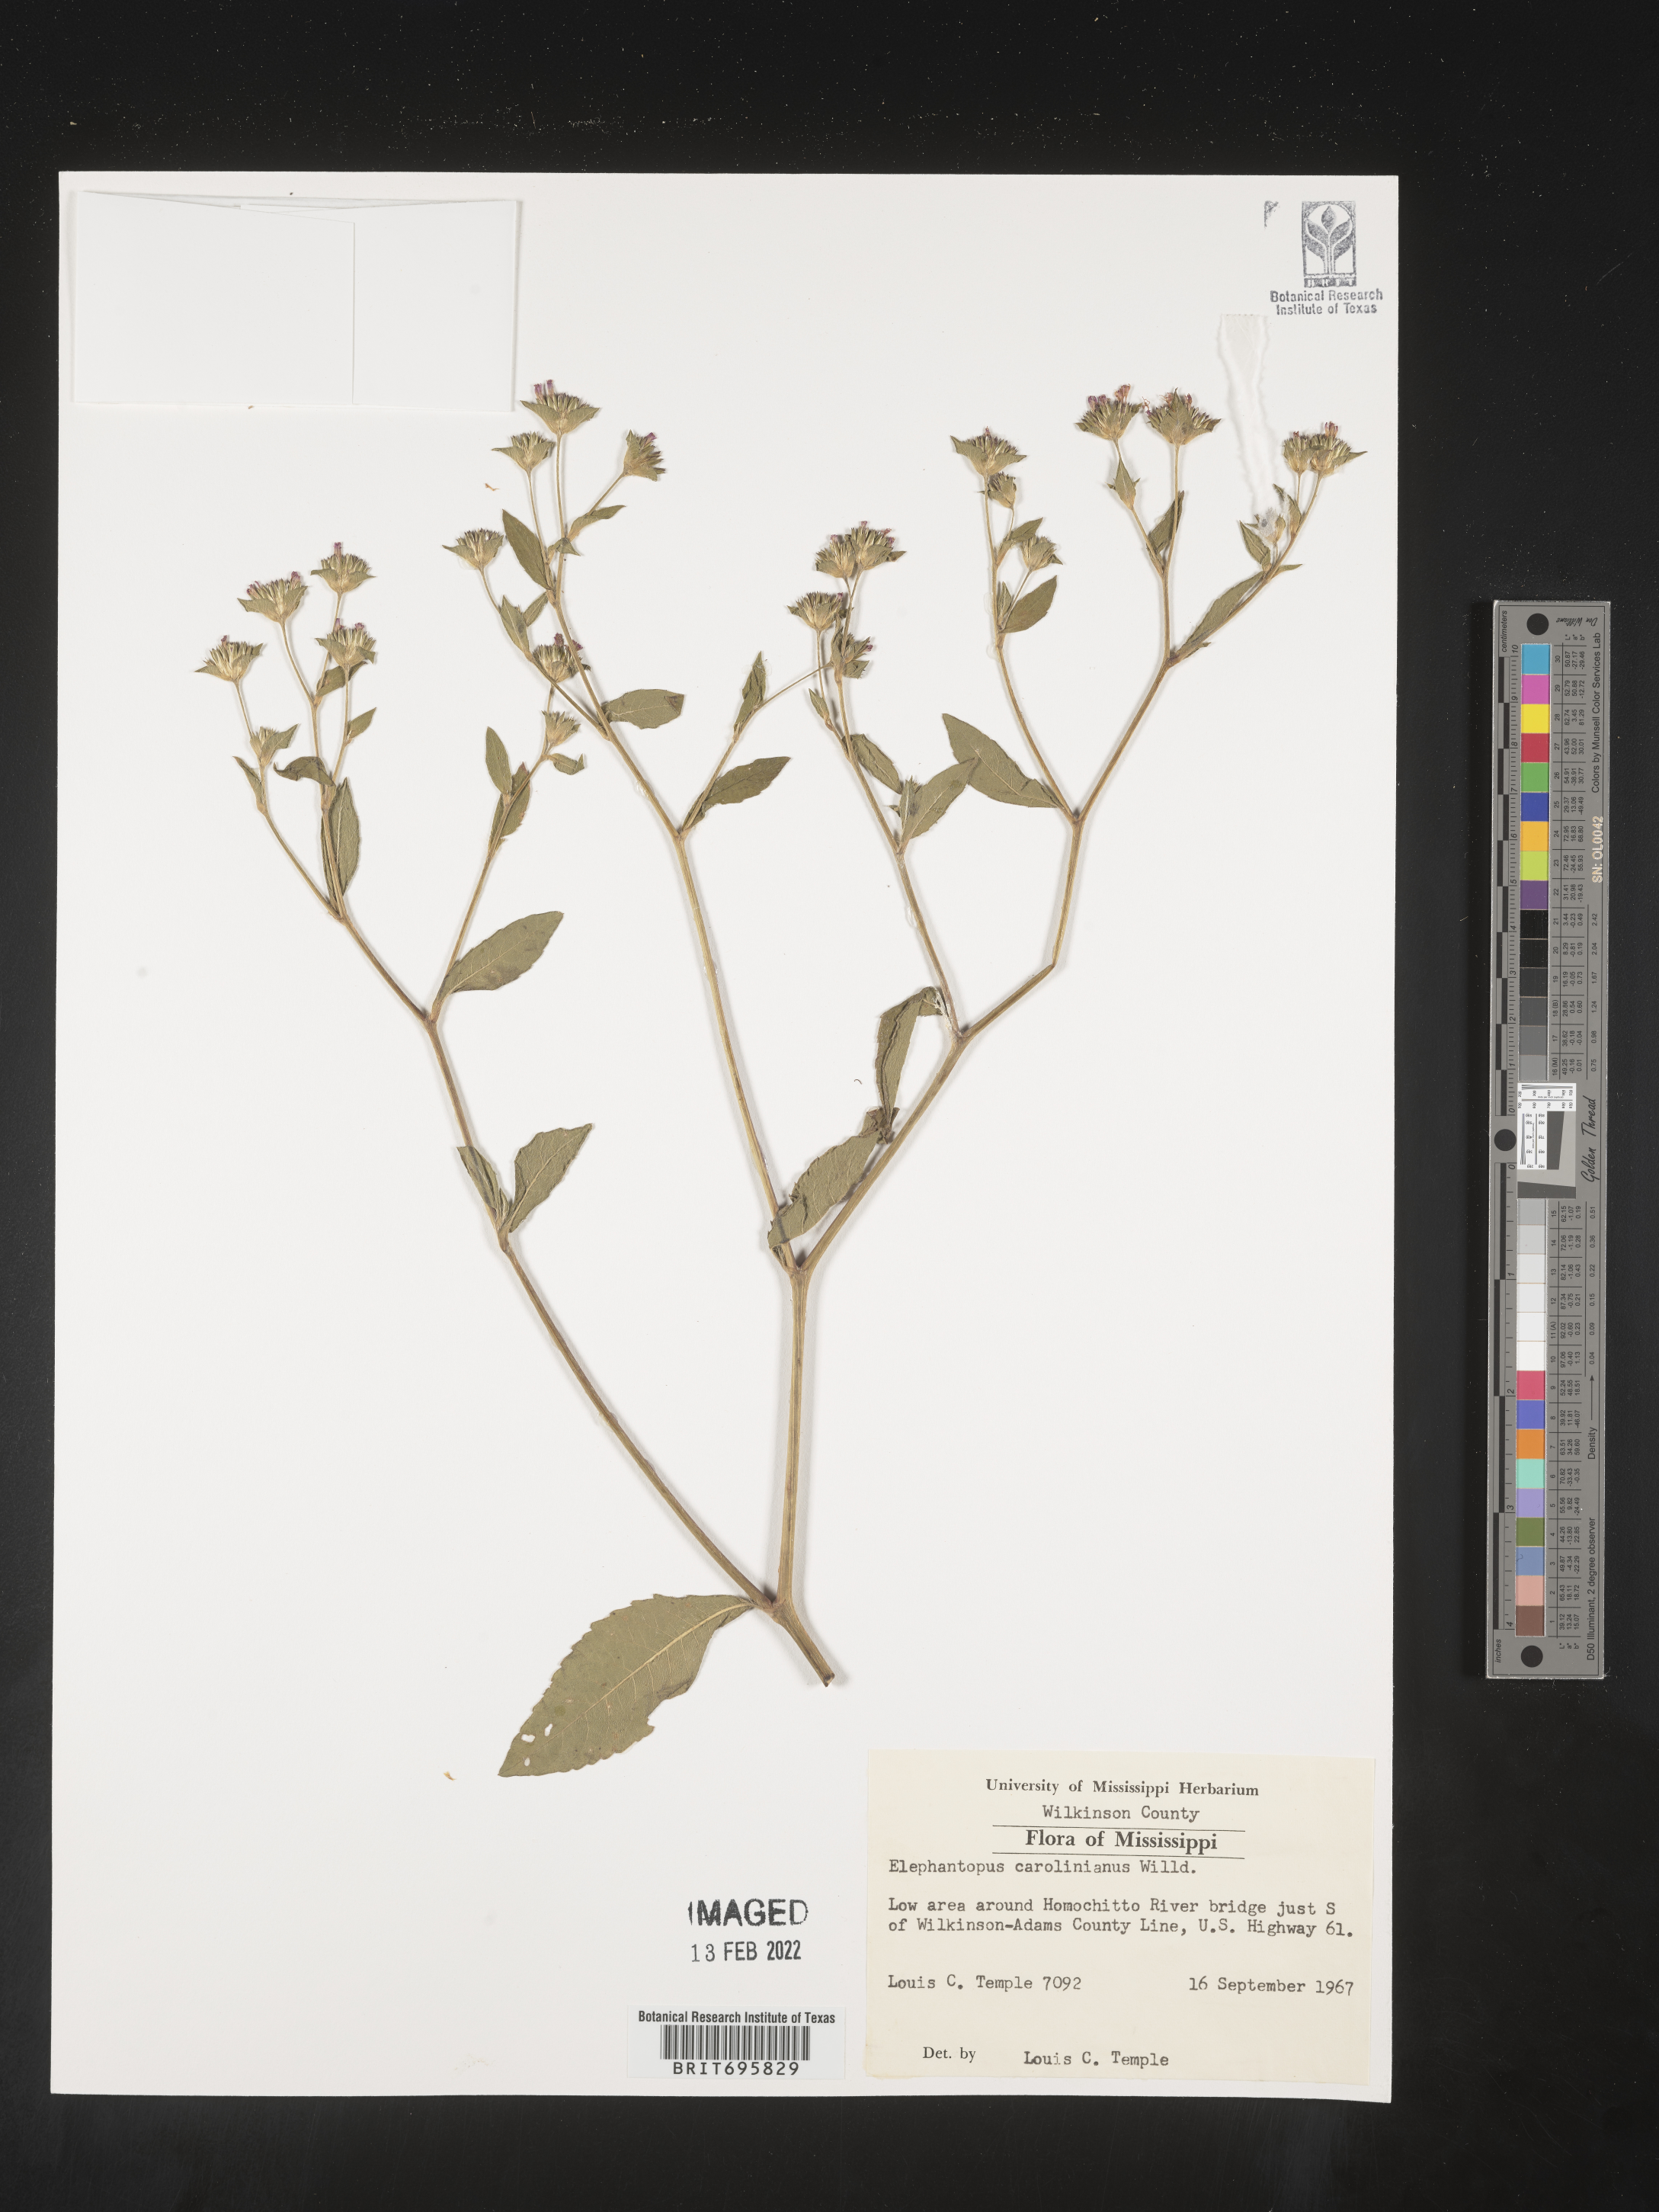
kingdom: Plantae
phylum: Tracheophyta
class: Magnoliopsida
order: Asterales
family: Asteraceae
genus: Elephantopus
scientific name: Elephantopus carolinianus
